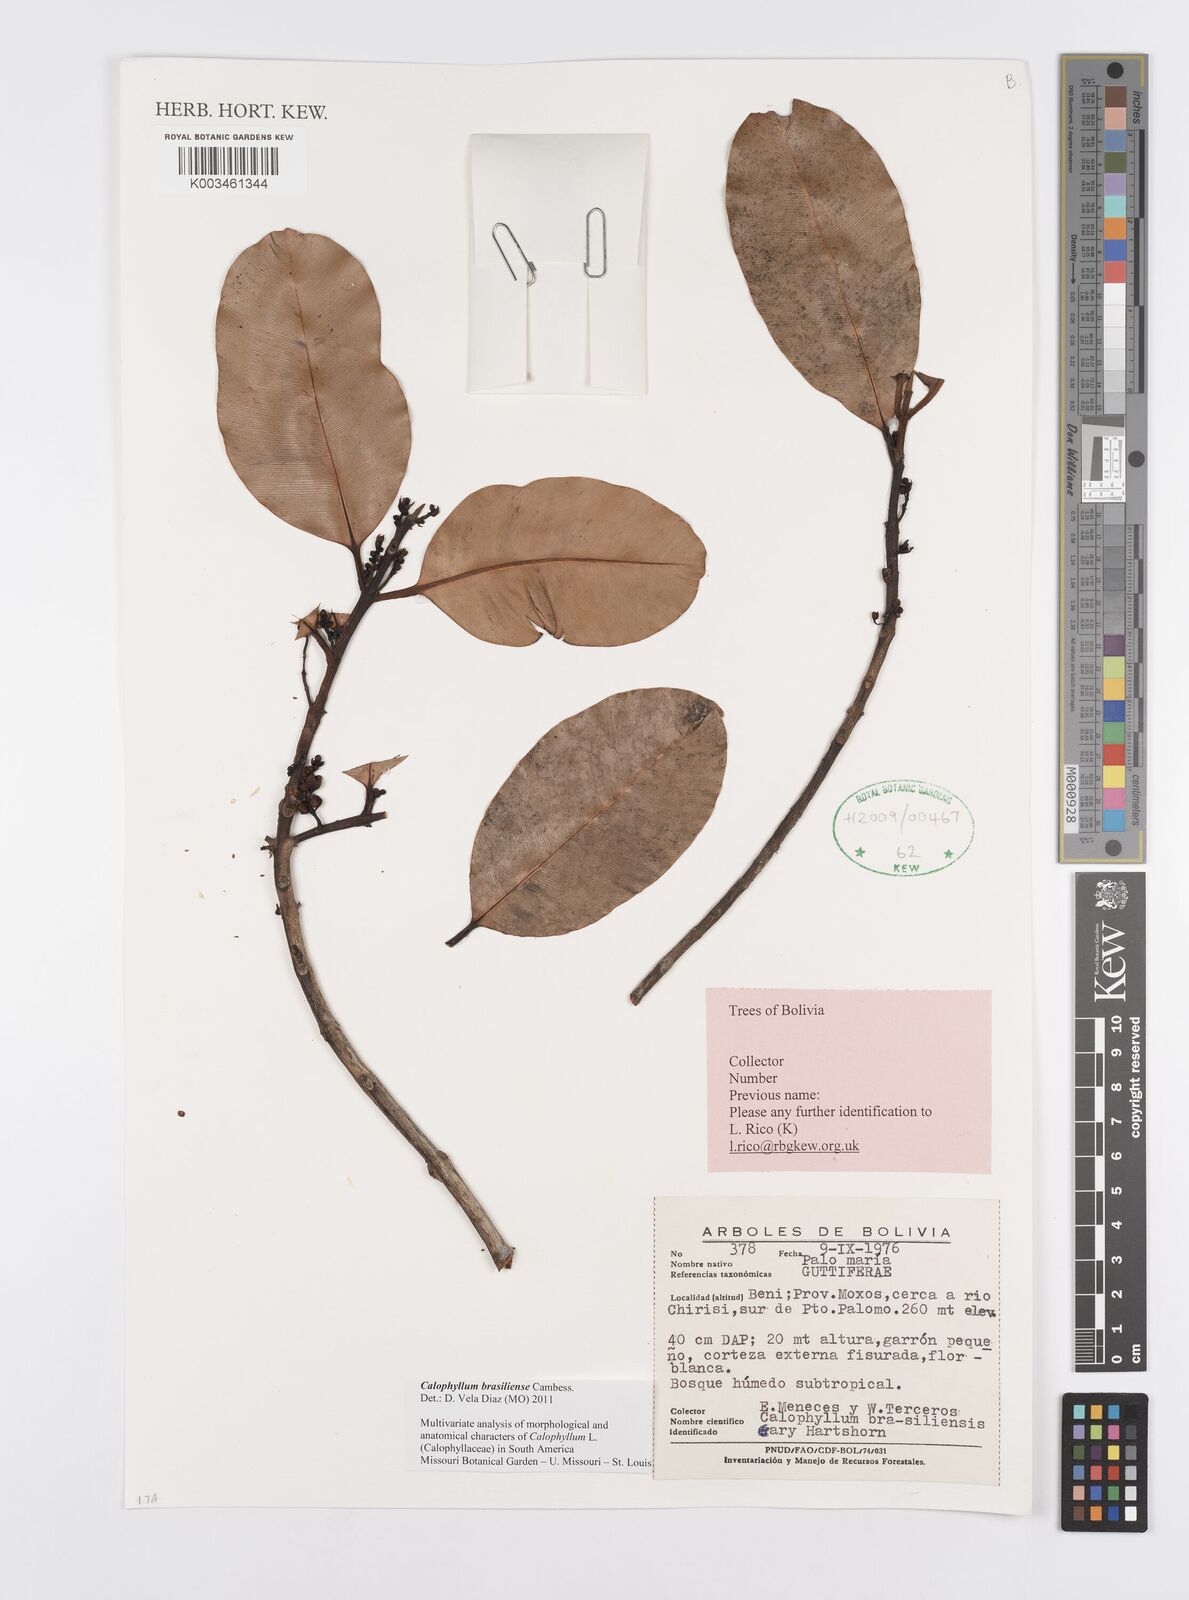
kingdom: Plantae
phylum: Tracheophyta
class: Magnoliopsida
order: Malpighiales
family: Calophyllaceae
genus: Calophyllum
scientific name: Calophyllum brasiliense
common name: Santa maria
